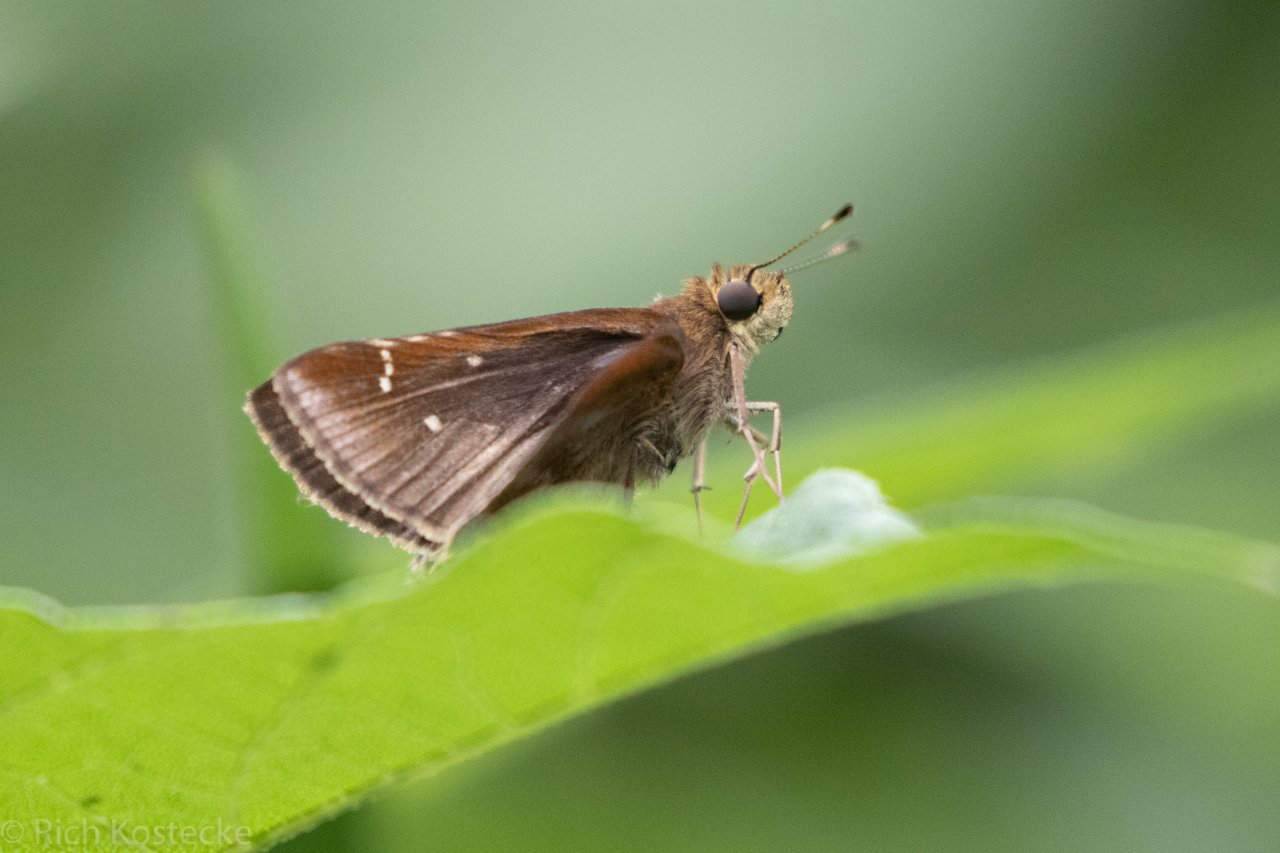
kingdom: Animalia
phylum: Arthropoda
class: Insecta
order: Lepidoptera
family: Hesperiidae
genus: Lerema
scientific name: Lerema accius
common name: Clouded Skipper
